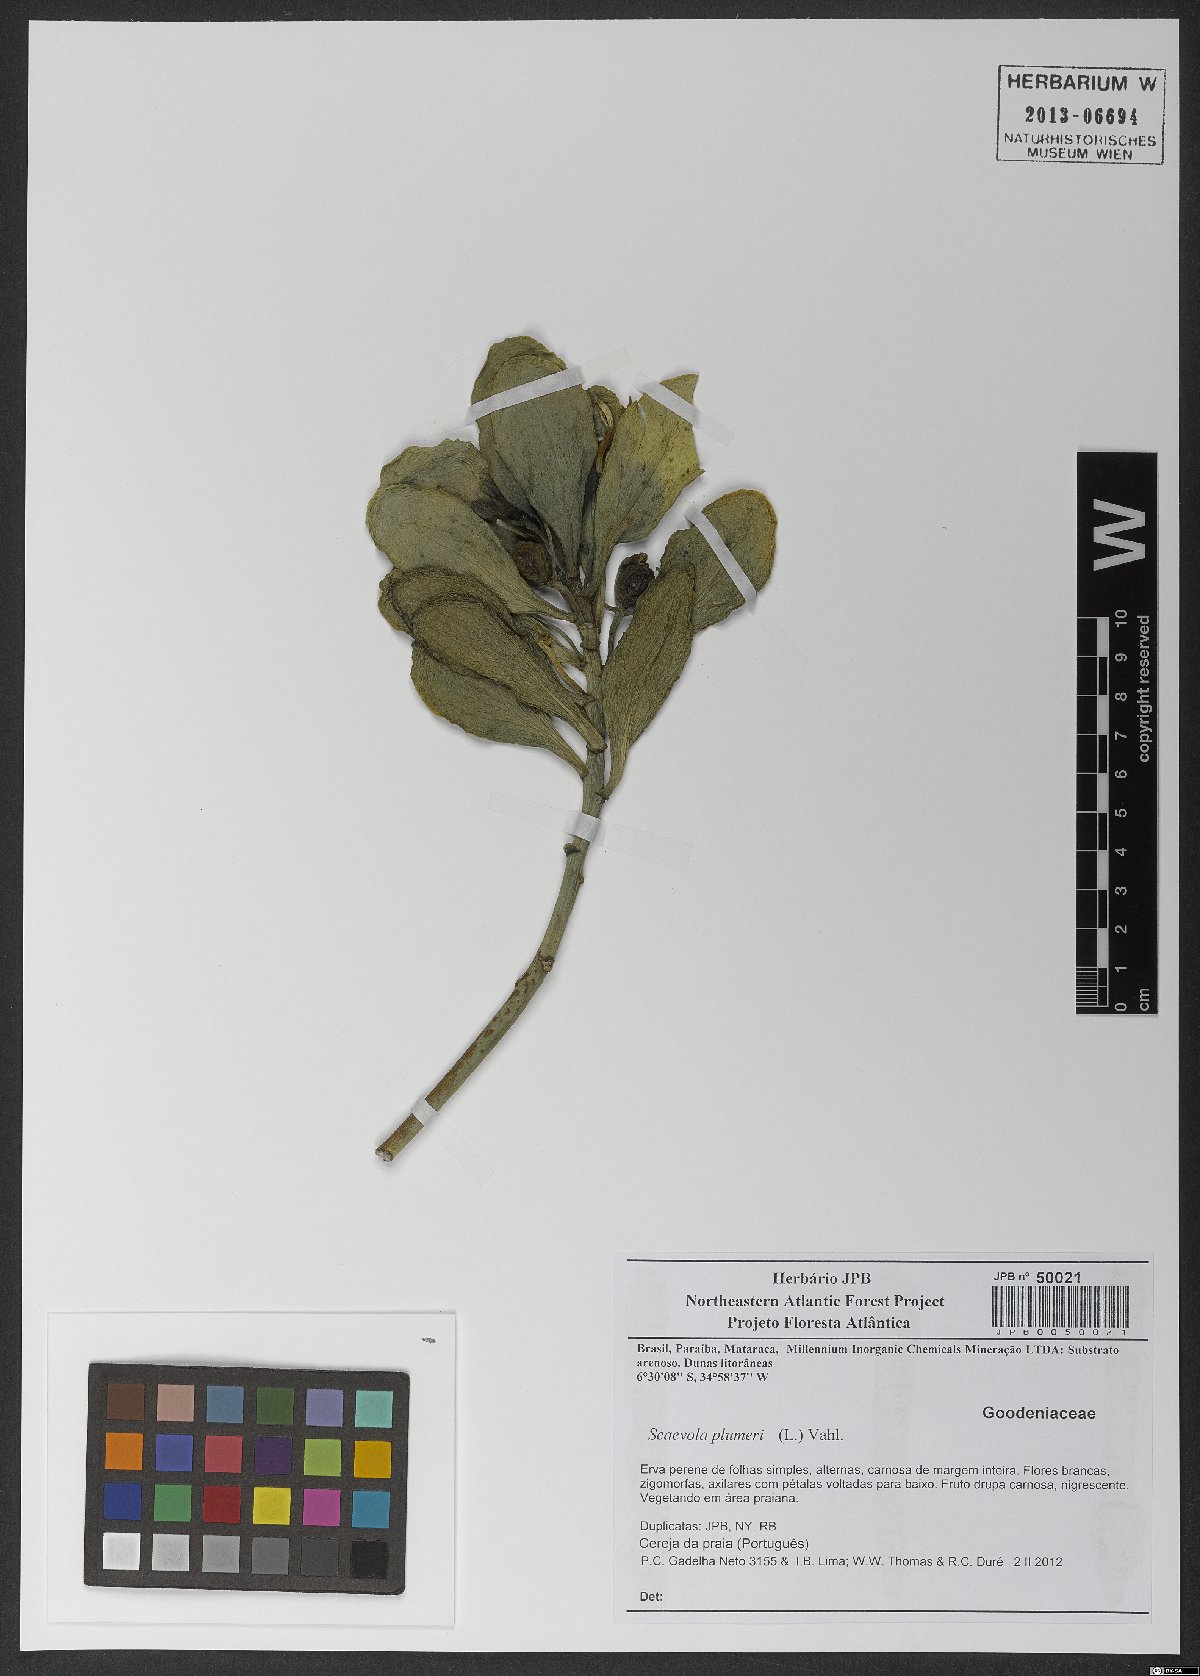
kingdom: Plantae
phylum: Tracheophyta
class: Magnoliopsida
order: Asterales
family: Goodeniaceae
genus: Scaevola
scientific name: Scaevola plumieri
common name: Gull feed
